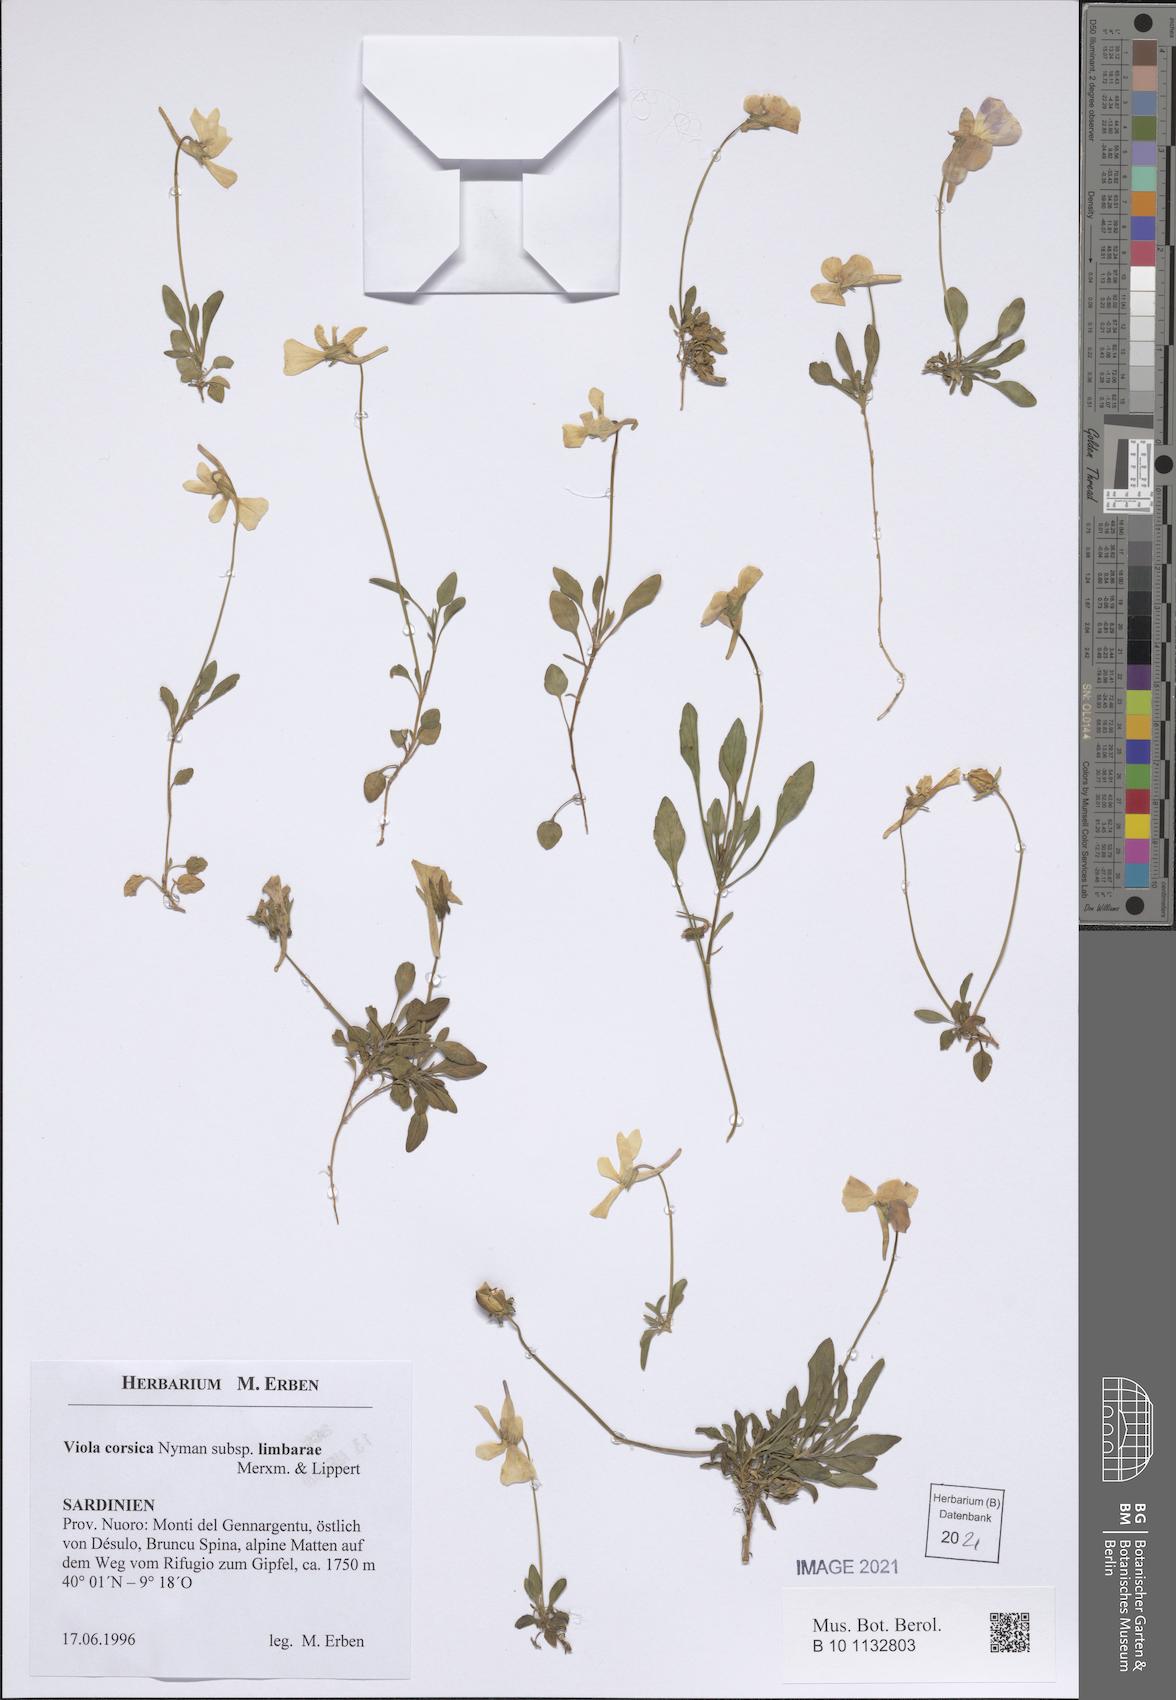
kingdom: Plantae
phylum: Tracheophyta
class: Magnoliopsida
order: Malpighiales
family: Violaceae
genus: Viola
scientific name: Viola corsica
